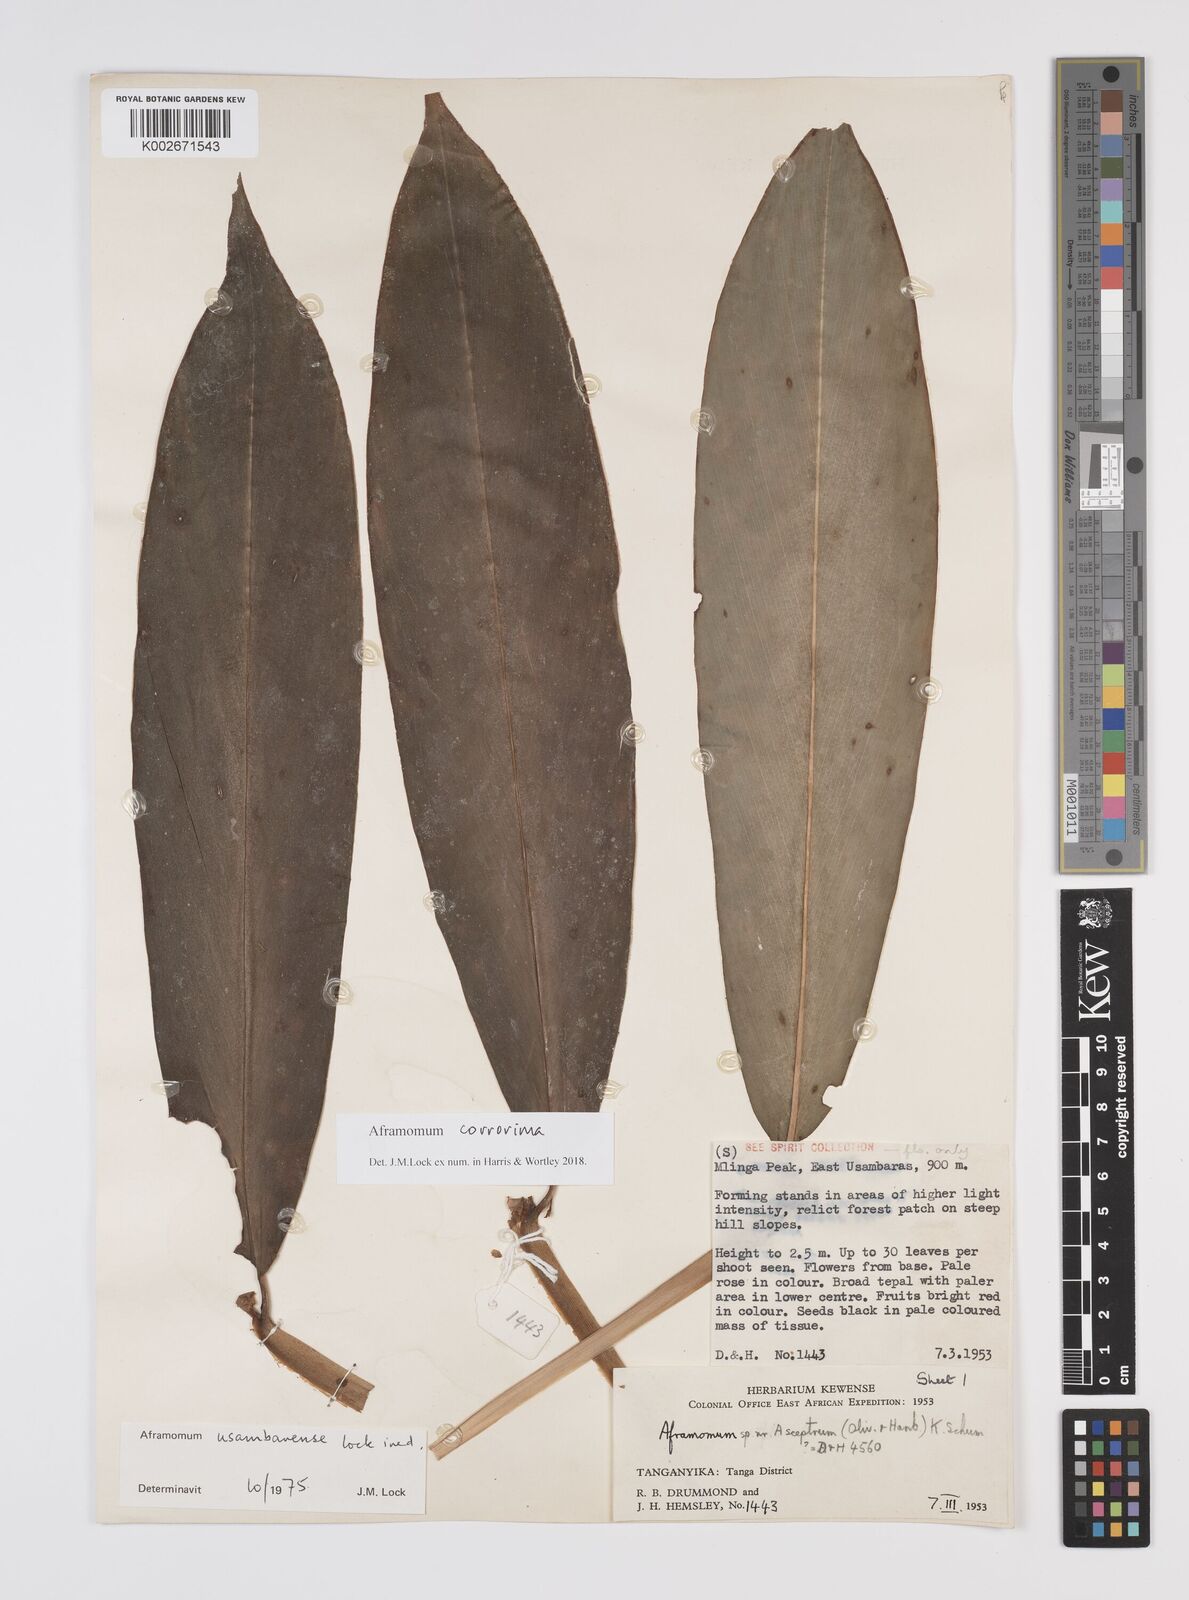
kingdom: Plantae
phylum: Tracheophyta
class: Liliopsida
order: Zingiberales
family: Zingiberaceae
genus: Aframomum
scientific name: Aframomum corrorima
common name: Ethiopian cardamom
